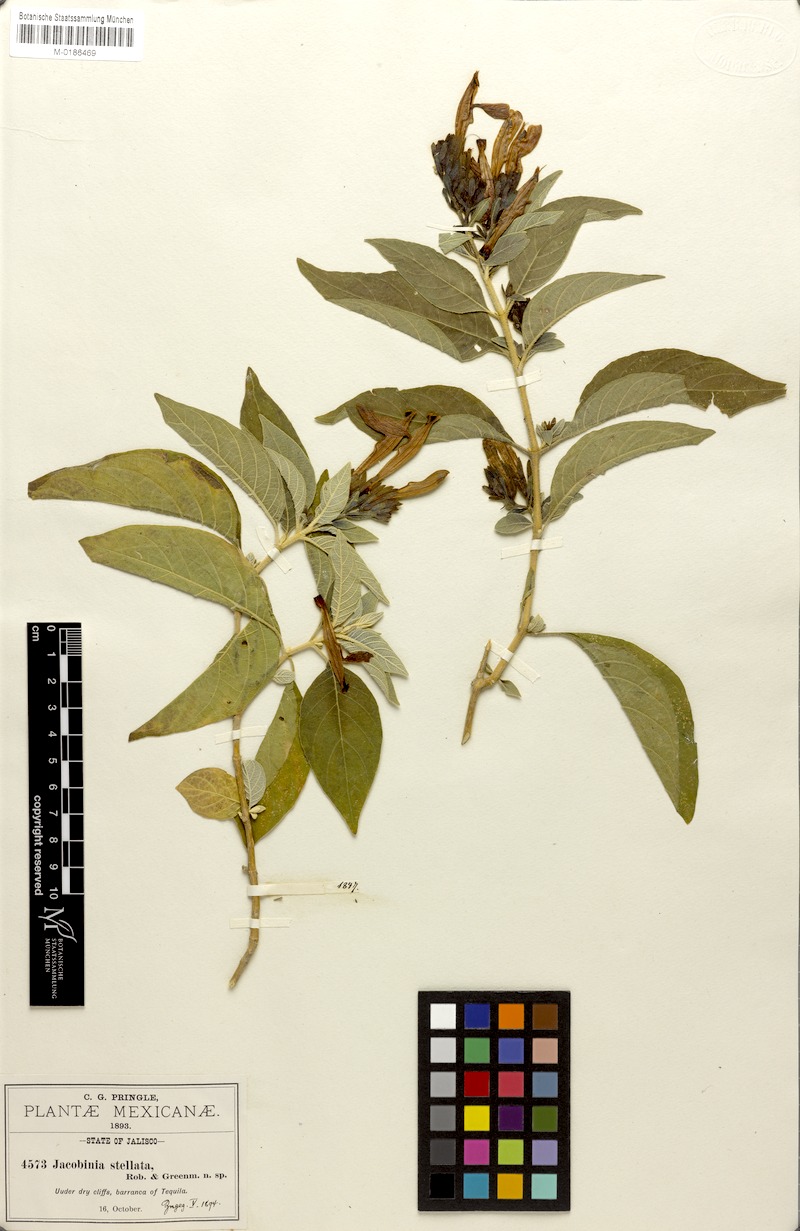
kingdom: Plantae
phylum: Tracheophyta
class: Magnoliopsida
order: Lamiales
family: Acanthaceae
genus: Justicia
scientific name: Justicia stellata
